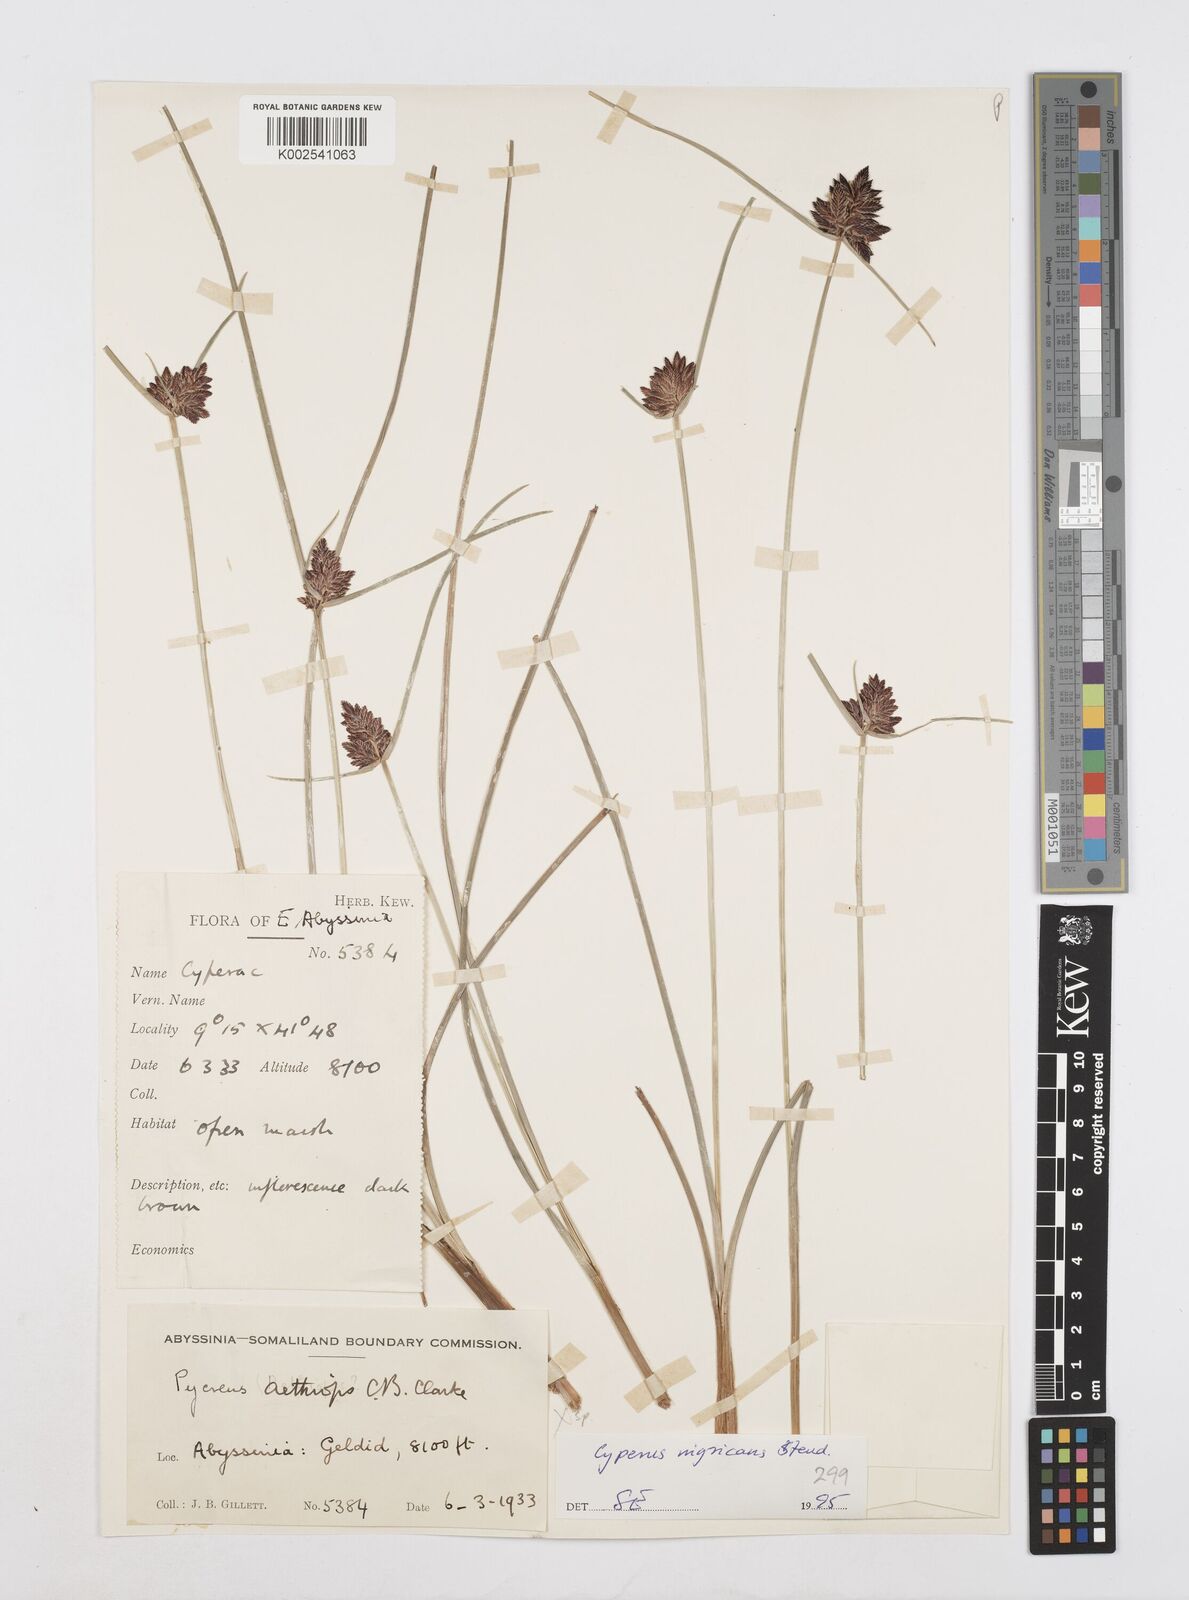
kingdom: Plantae
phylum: Tracheophyta
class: Liliopsida
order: Poales
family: Cyperaceae
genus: Cyperus
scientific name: Cyperus nigricans
